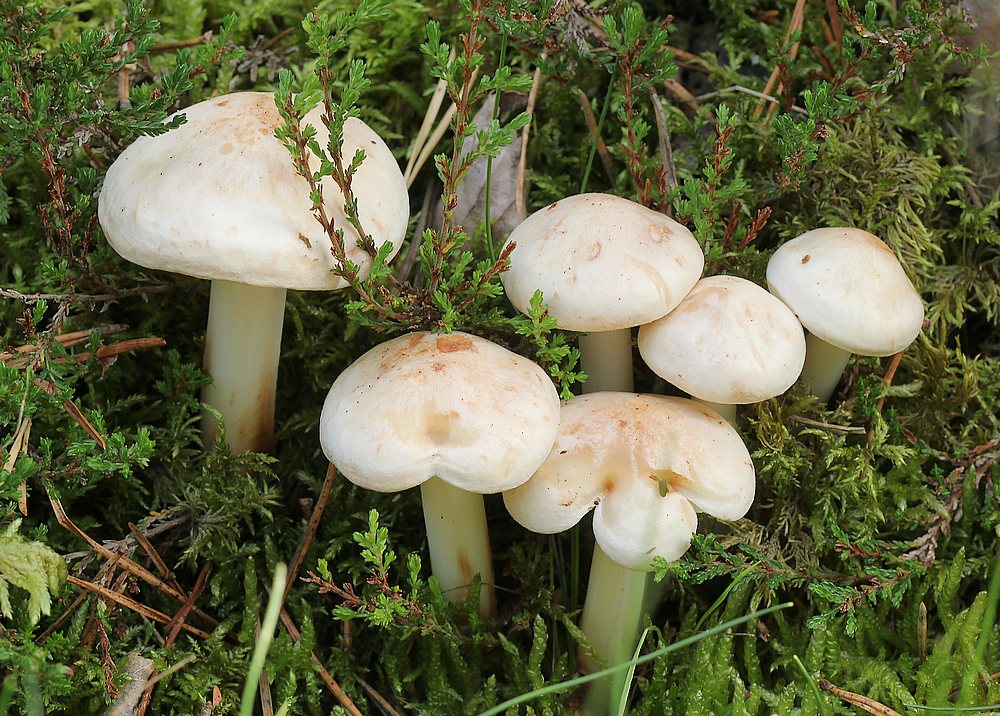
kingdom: Fungi
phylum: Basidiomycota
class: Agaricomycetes
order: Agaricales
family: Omphalotaceae
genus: Rhodocollybia
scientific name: Rhodocollybia maculata
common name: plettet fladhat
